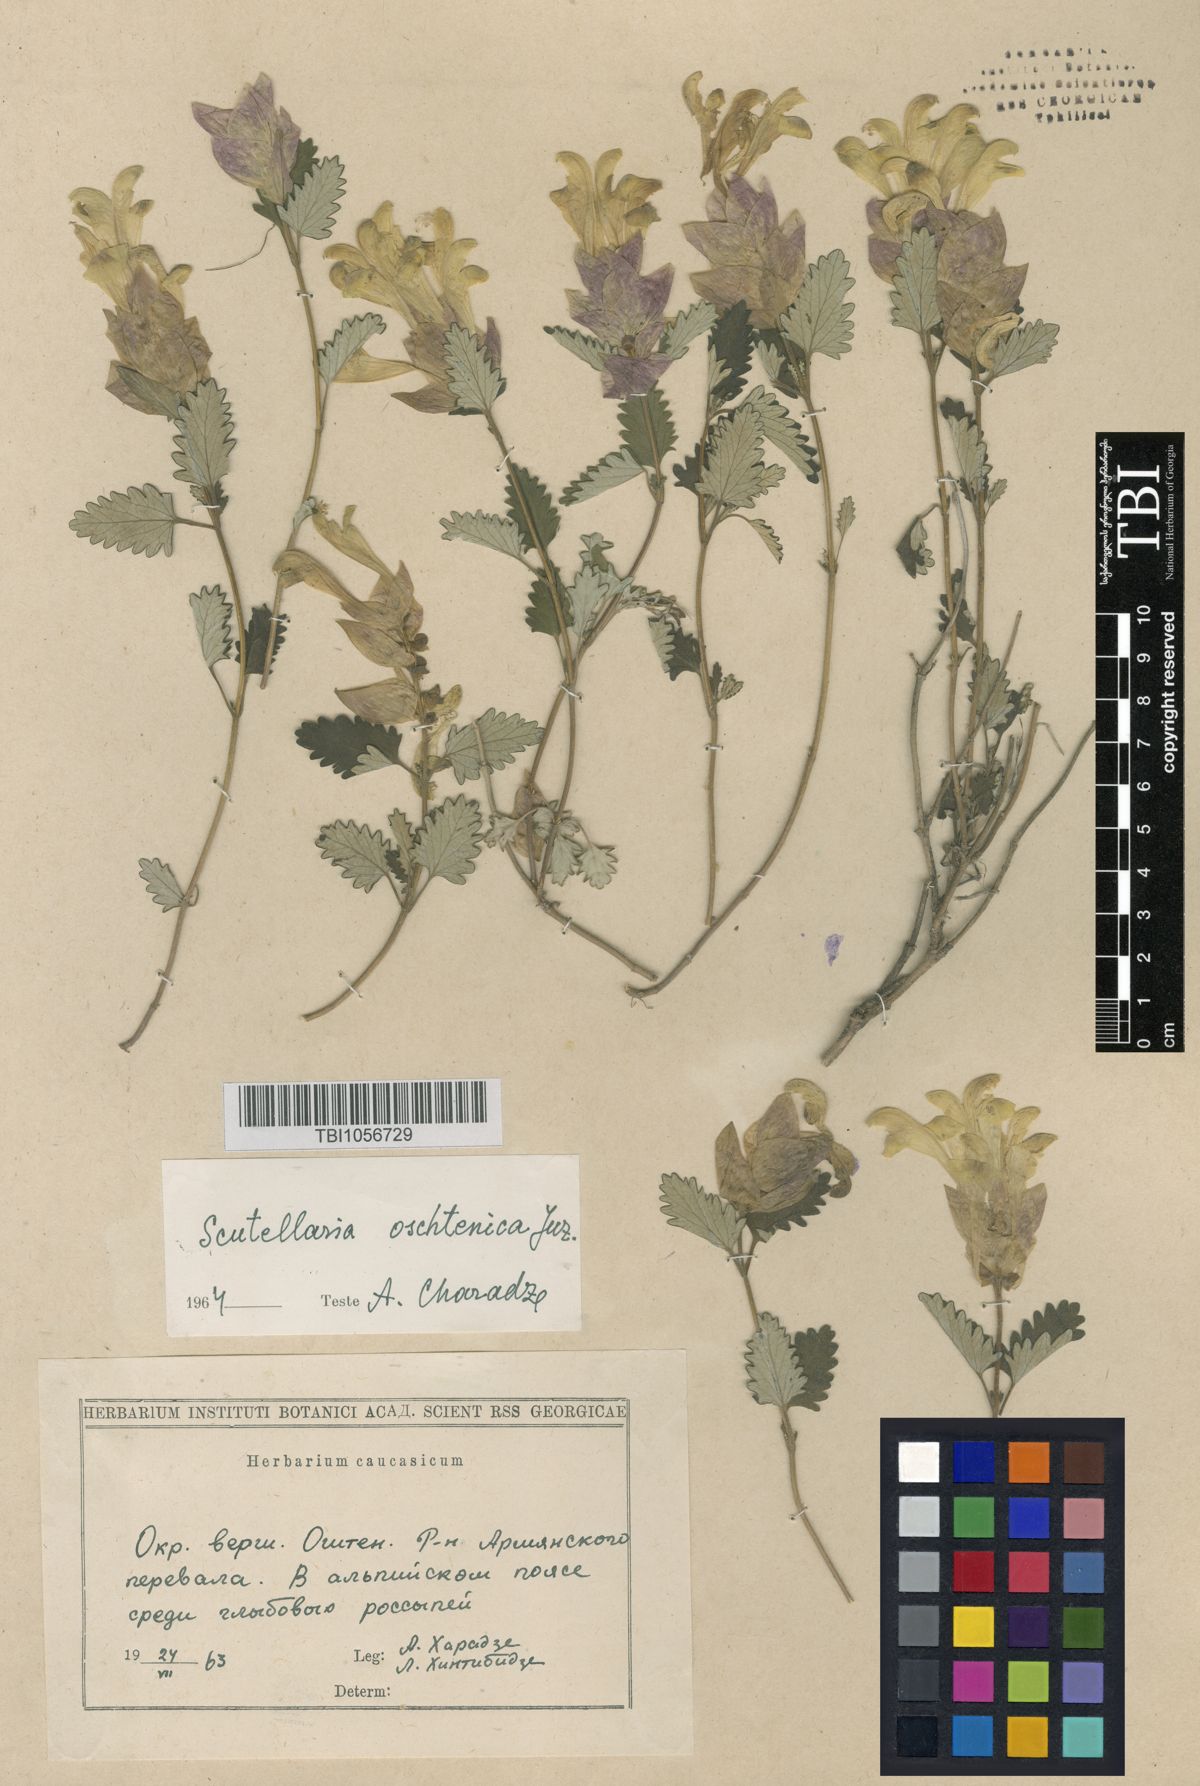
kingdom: Plantae
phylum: Tracheophyta
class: Magnoliopsida
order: Lamiales
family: Lamiaceae
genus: Scutellaria
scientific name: Scutellaria oschtenica
